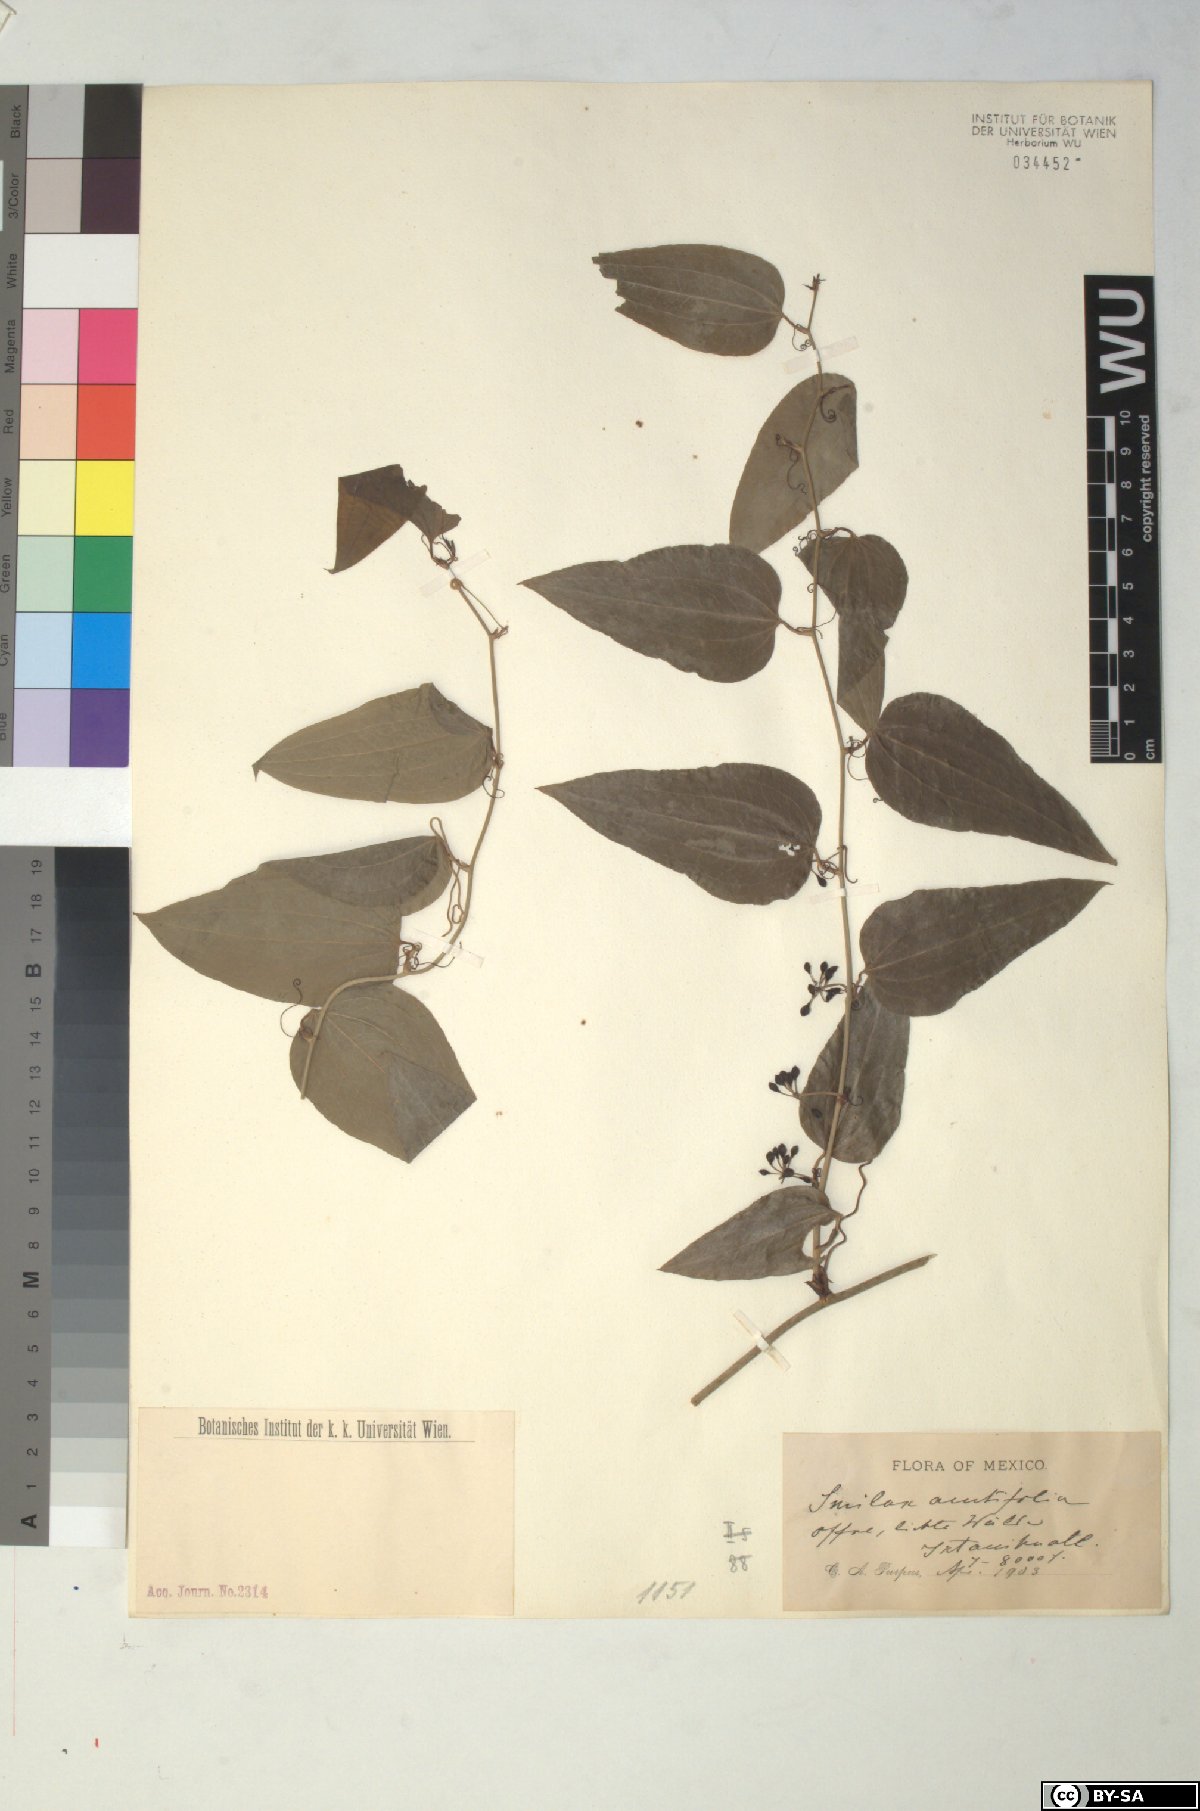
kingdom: Plantae
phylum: Tracheophyta
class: Liliopsida
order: Liliales
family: Smilacaceae
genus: Smilax
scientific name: Smilax moranensis
